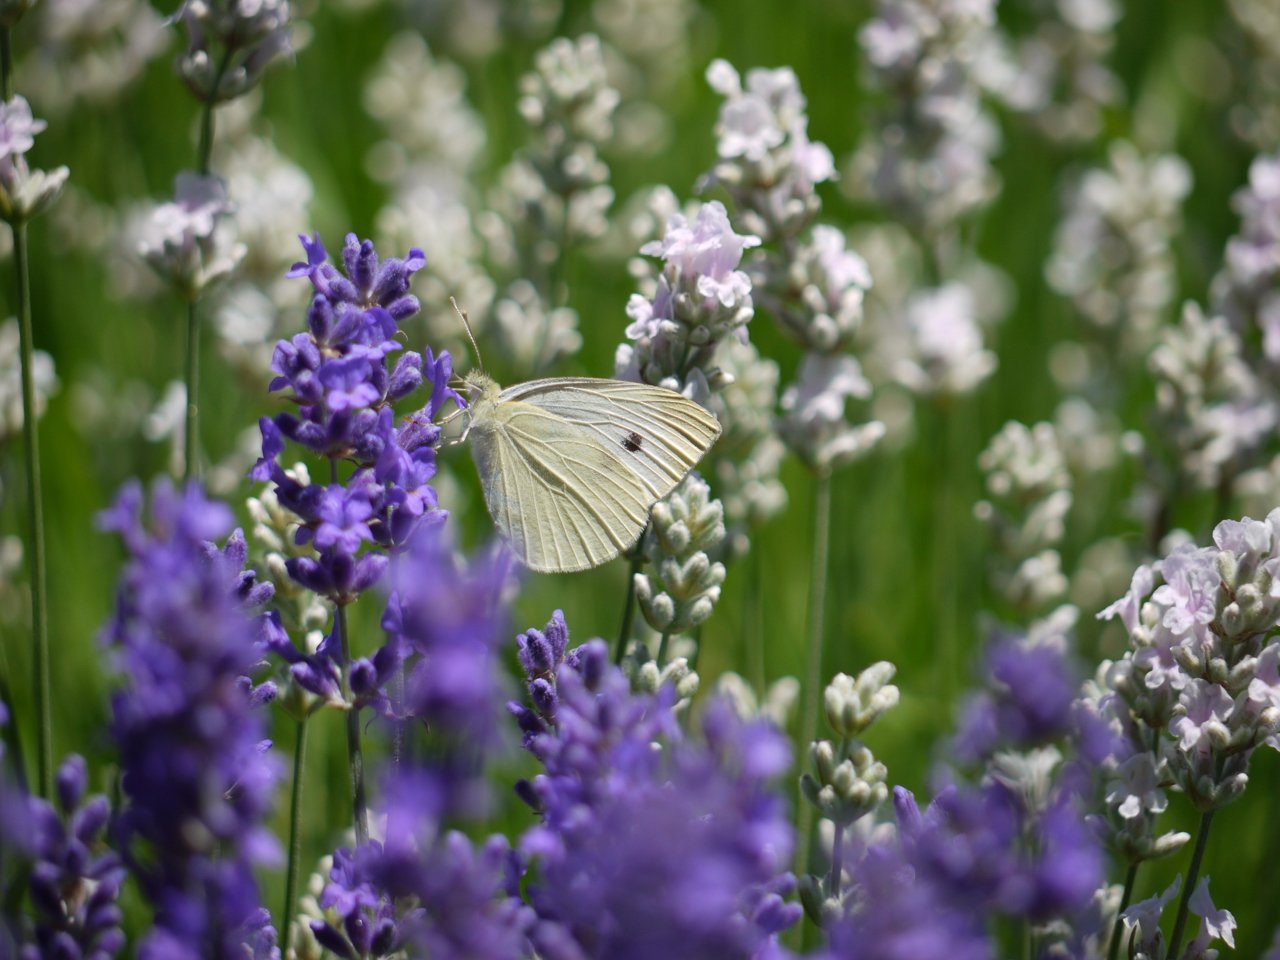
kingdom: Animalia
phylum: Arthropoda
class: Insecta
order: Lepidoptera
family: Pieridae
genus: Pieris
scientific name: Pieris rapae
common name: Cabbage White
